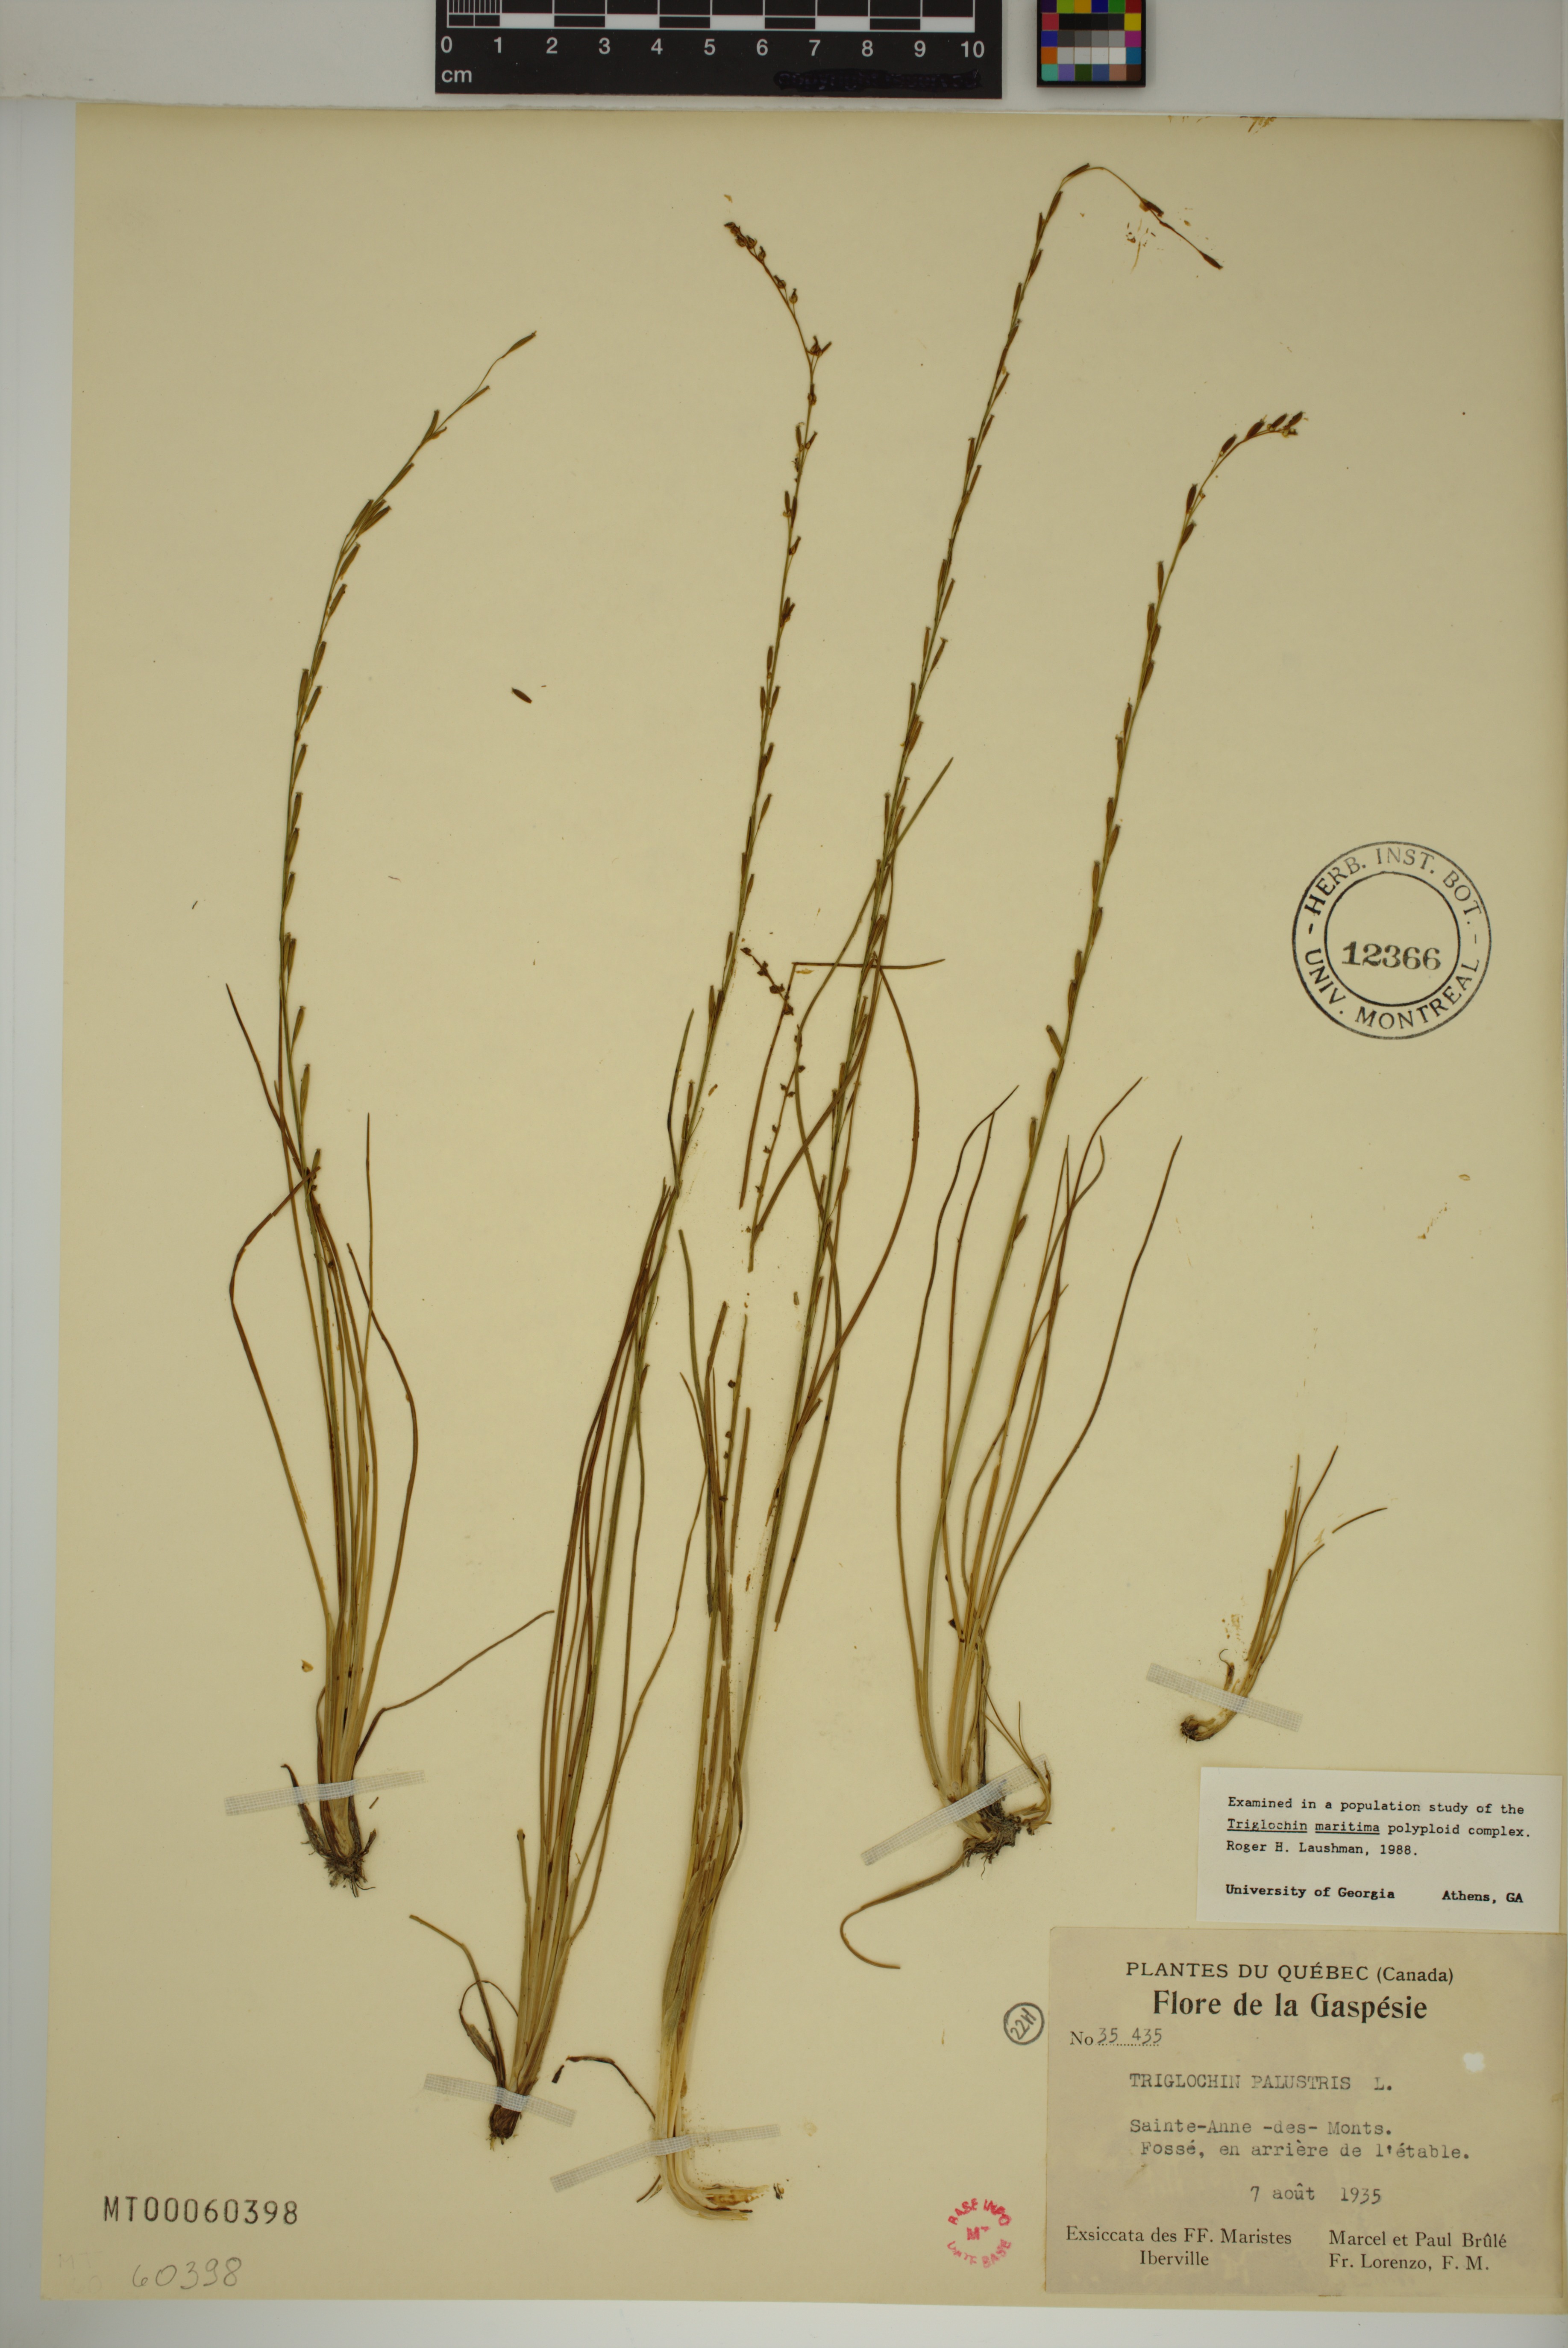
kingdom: Plantae
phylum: Tracheophyta
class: Liliopsida
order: Alismatales
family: Juncaginaceae
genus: Triglochin
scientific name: Triglochin palustris
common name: Marsh arrowgrass
